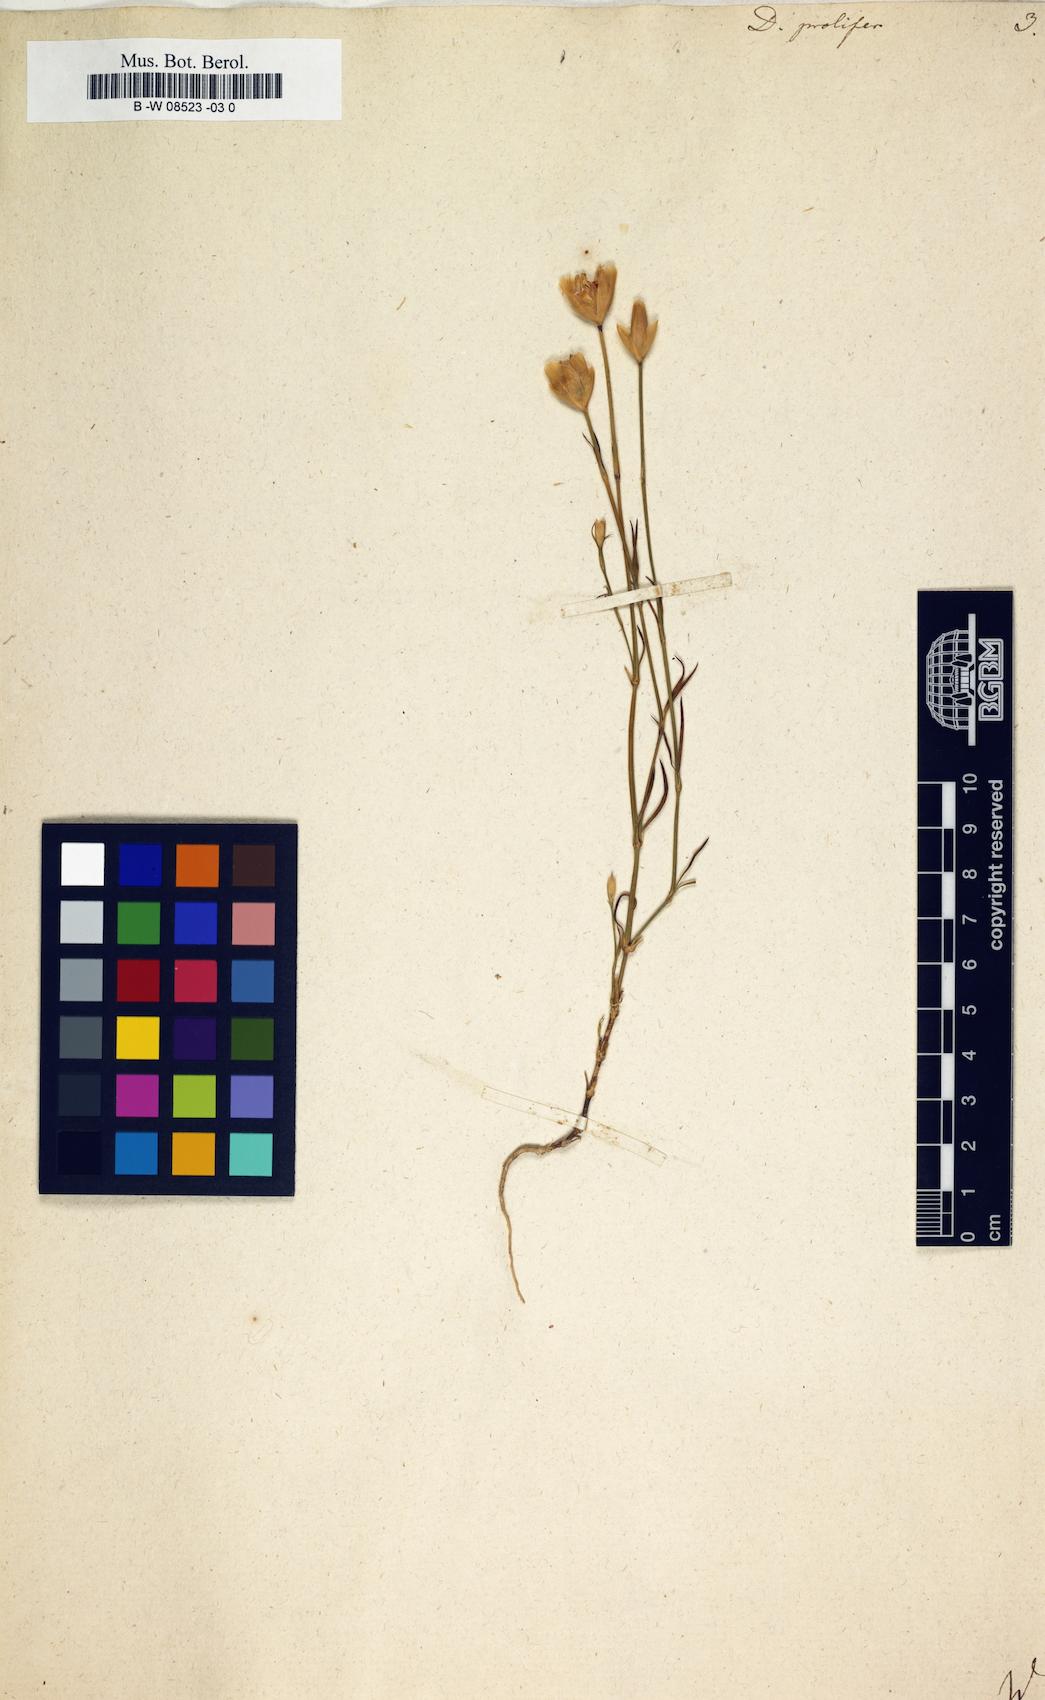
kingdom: Plantae
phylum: Tracheophyta
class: Magnoliopsida
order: Caryophyllales
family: Caryophyllaceae
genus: Dianthus
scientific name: Dianthus prolifer
